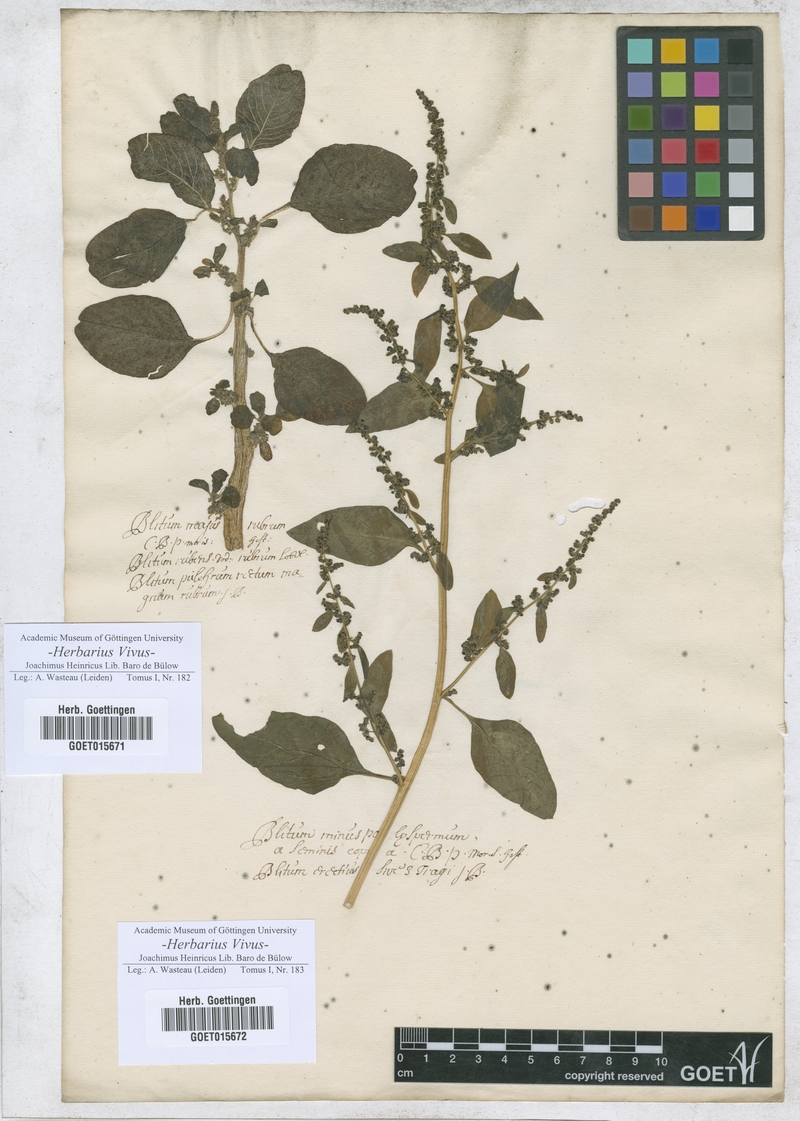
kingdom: Plantae
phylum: Tracheophyta
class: Magnoliopsida
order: Caryophyllales
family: Amaranthaceae
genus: Blitum
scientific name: Blitum
